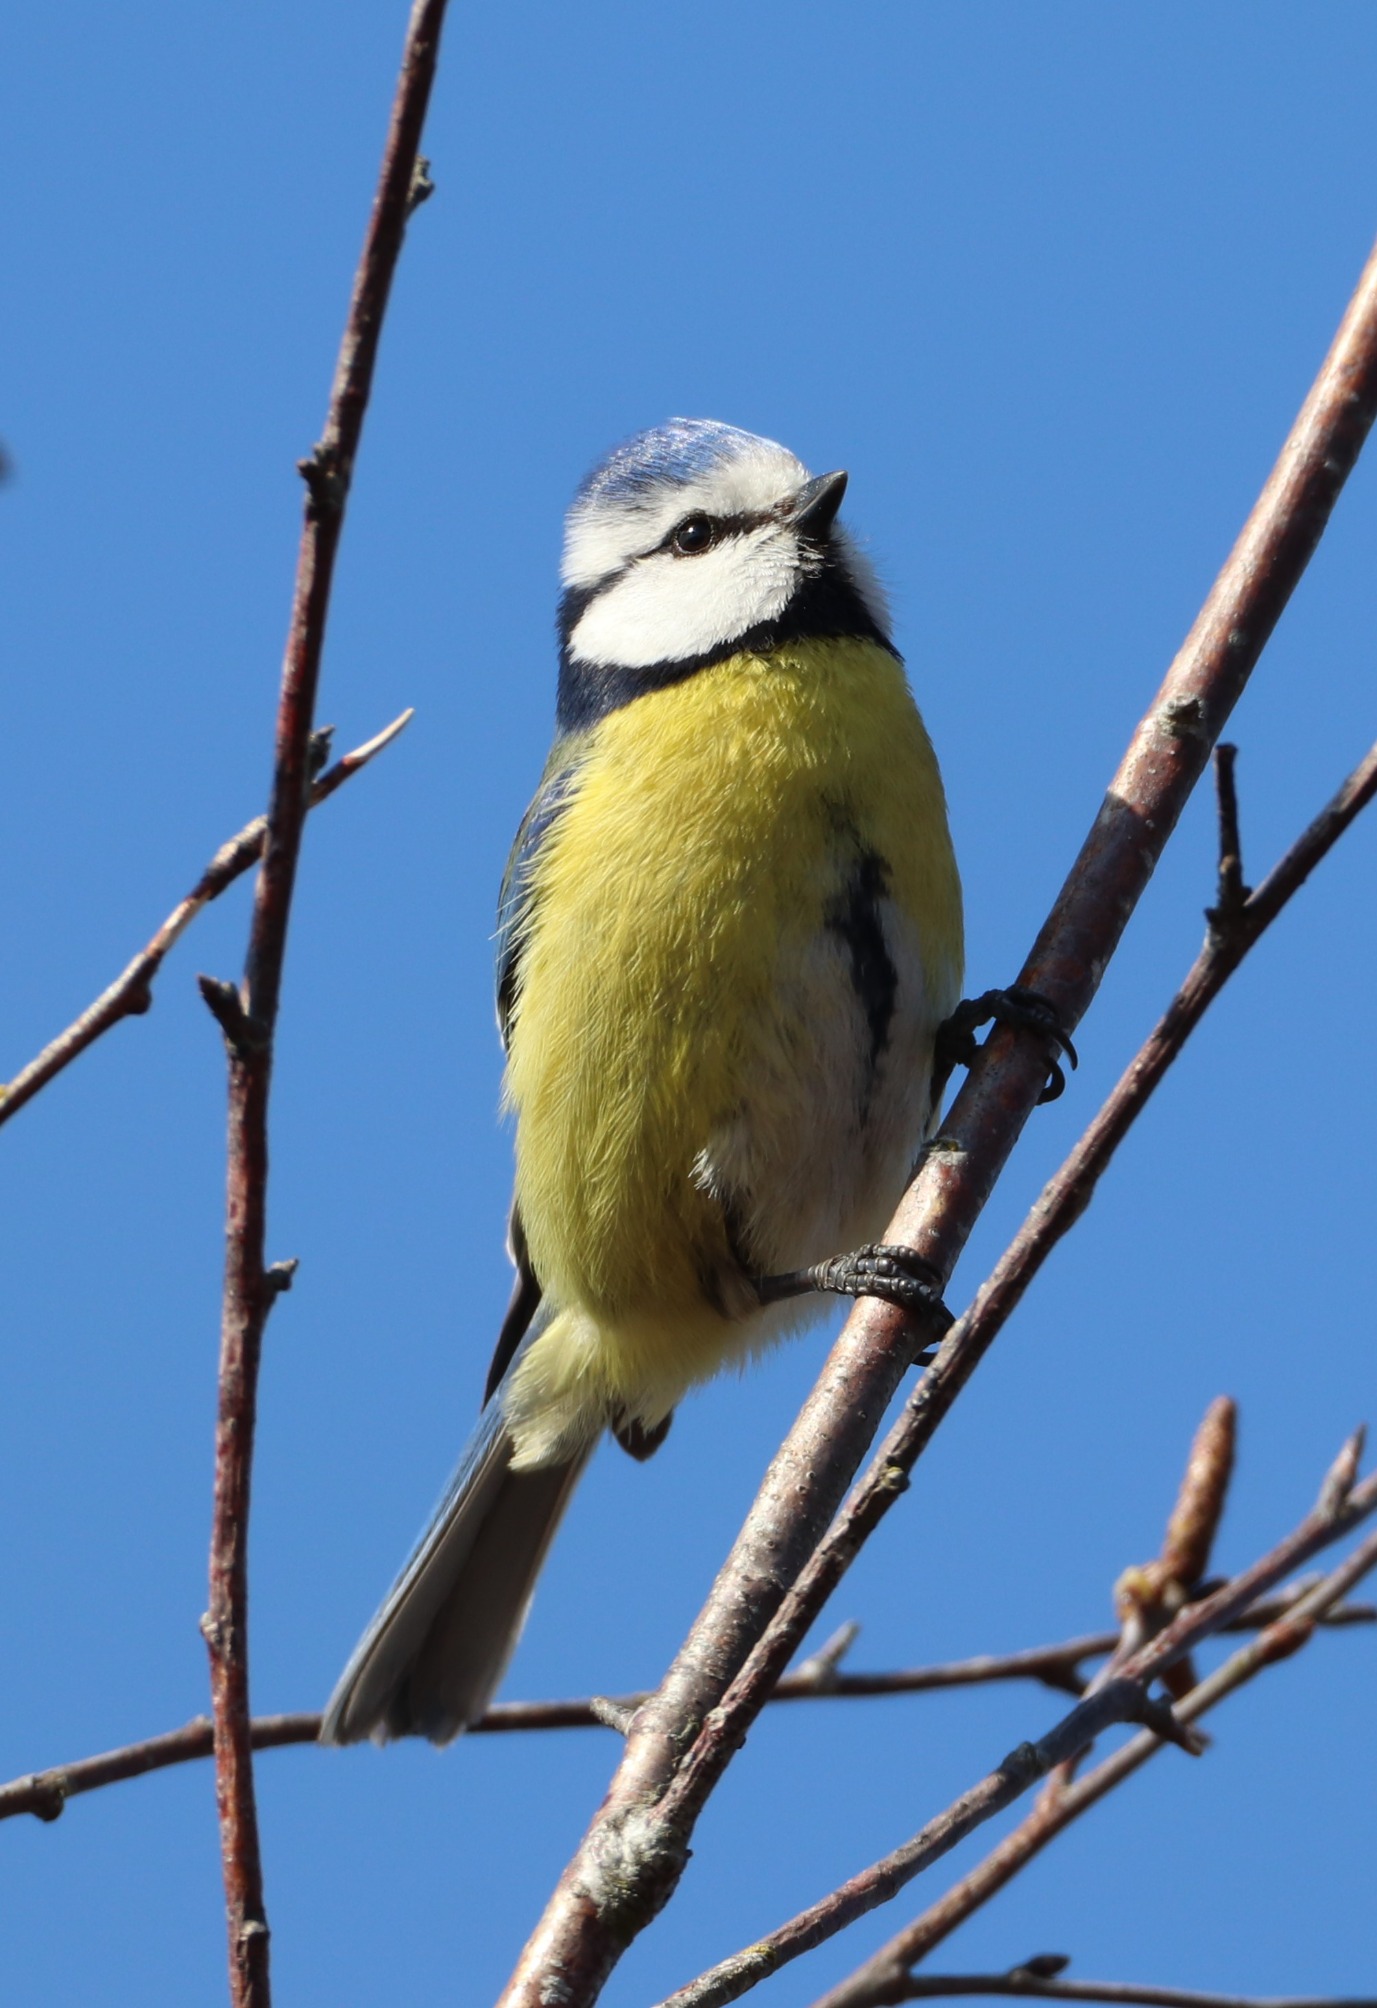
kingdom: Animalia
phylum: Chordata
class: Aves
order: Passeriformes
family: Paridae
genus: Cyanistes
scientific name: Cyanistes caeruleus
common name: Blåmejse
